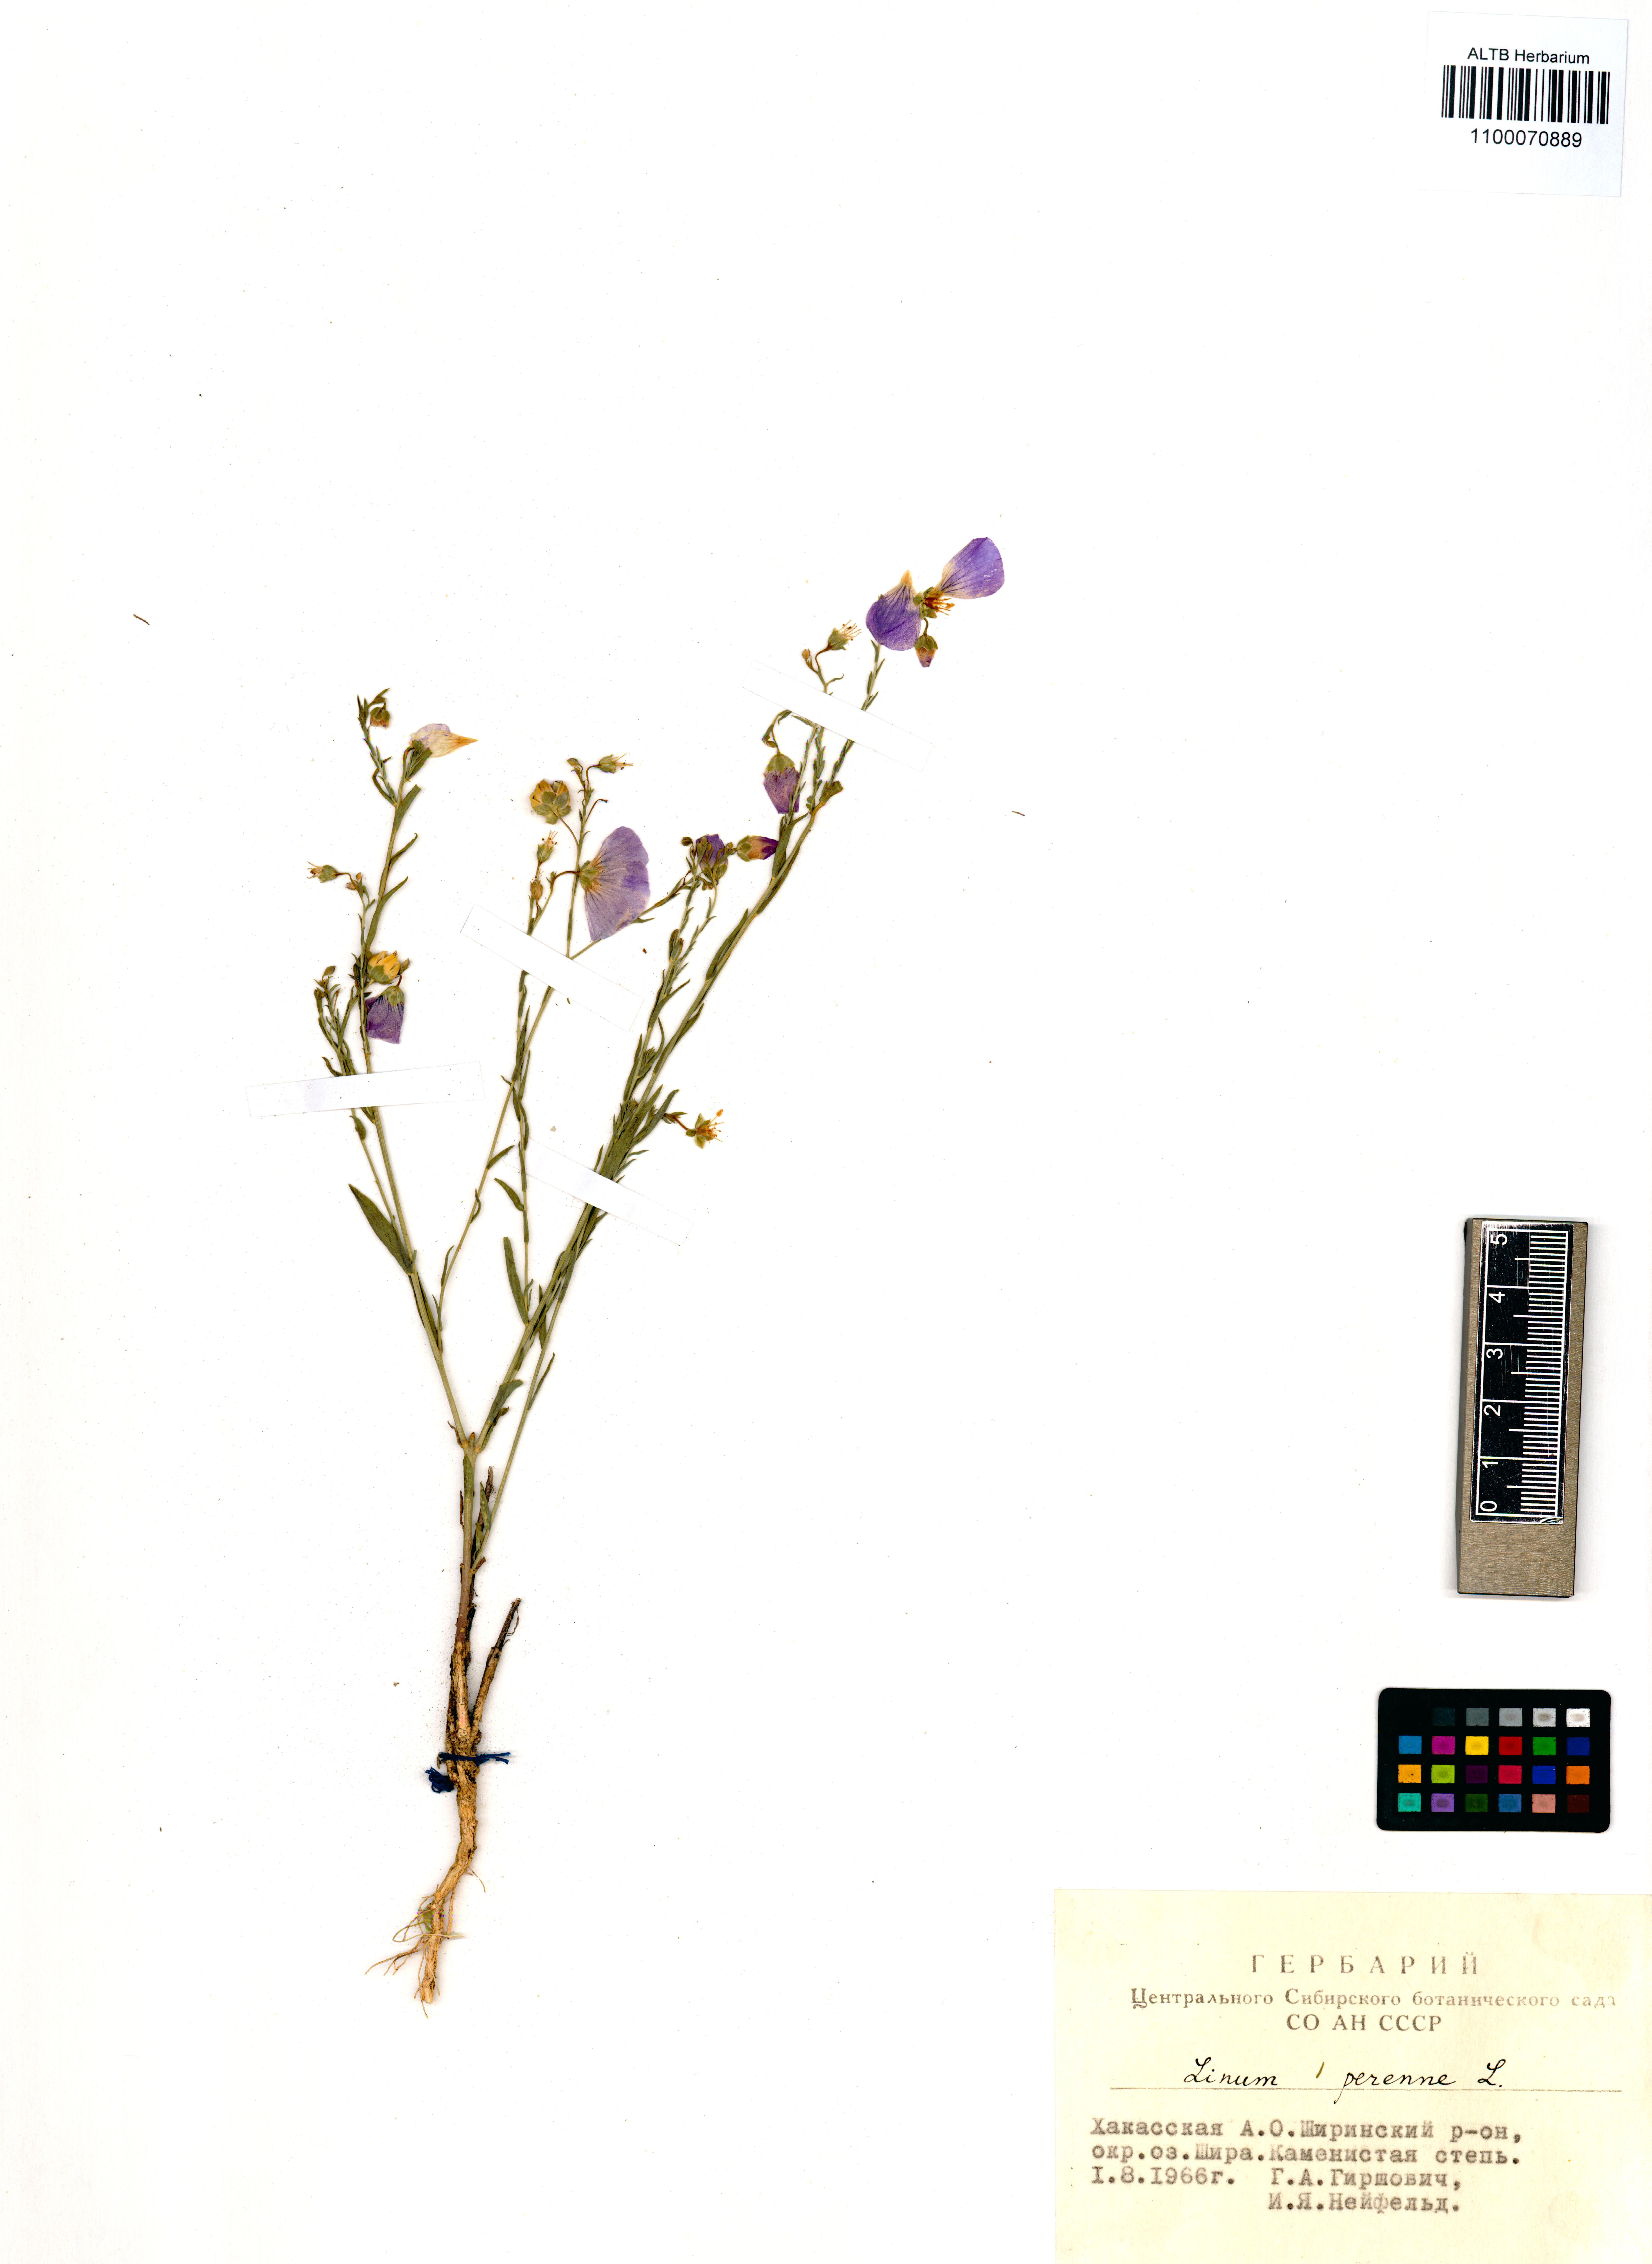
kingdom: Plantae
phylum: Tracheophyta
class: Magnoliopsida
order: Malpighiales
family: Linaceae
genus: Linum
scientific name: Linum perenne
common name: Blue flax
